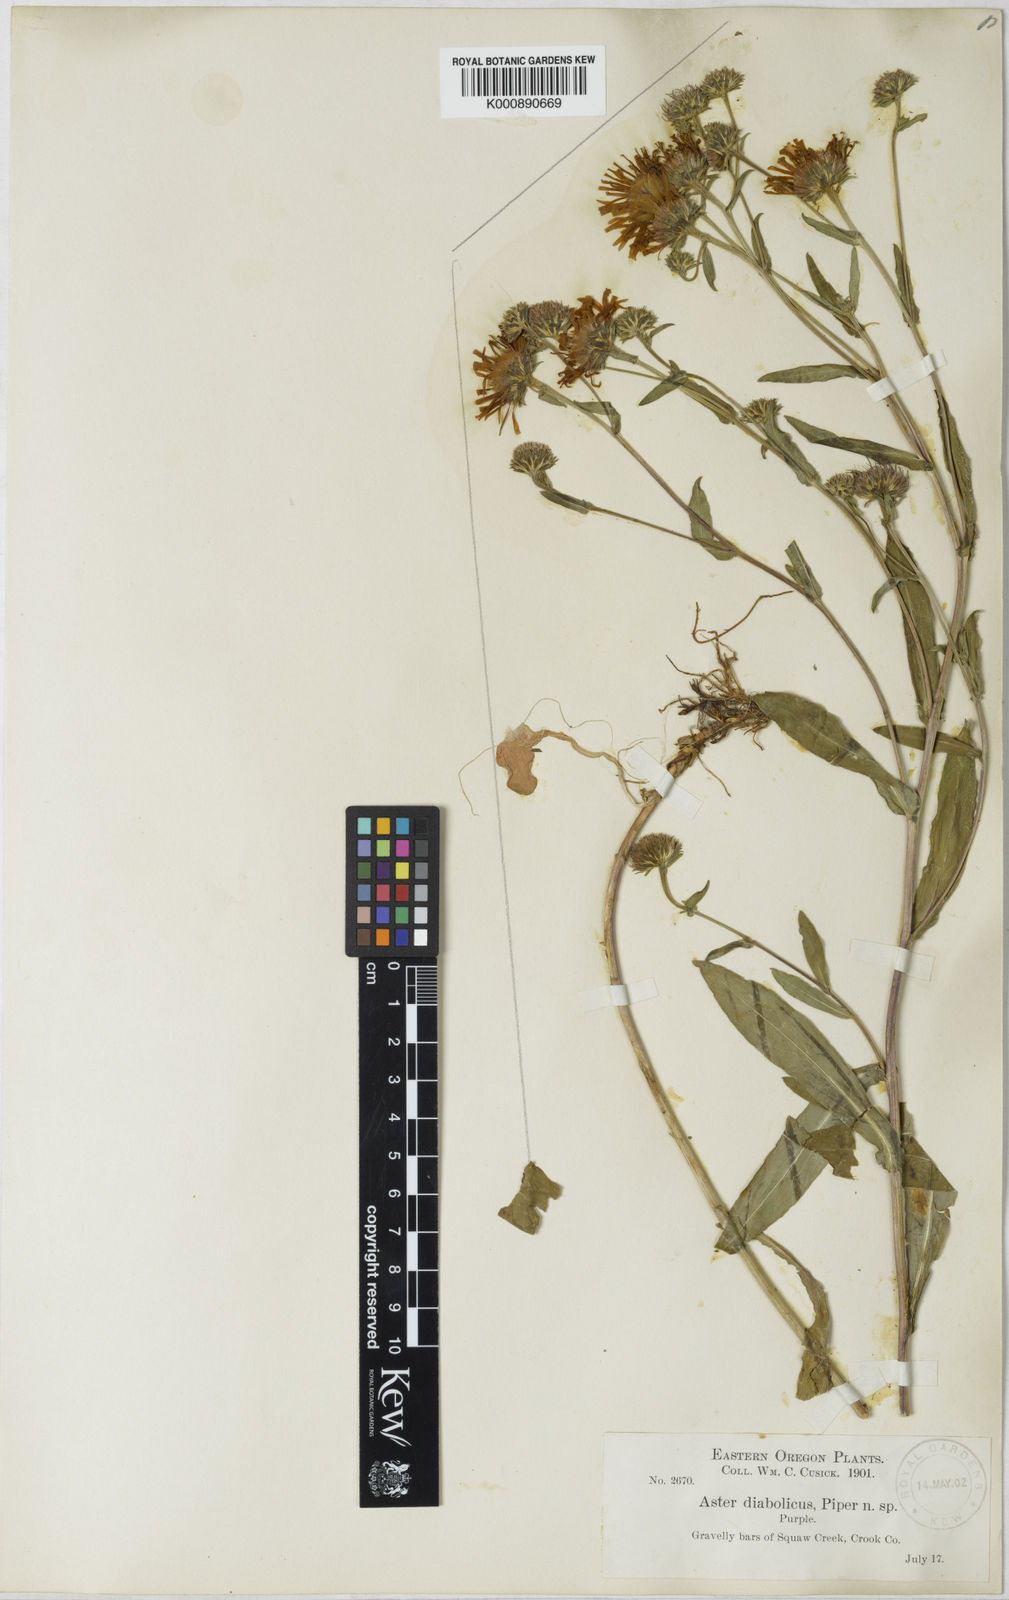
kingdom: Plantae
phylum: Tracheophyta
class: Magnoliopsida
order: Asterales
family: Asteraceae
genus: Symphyotrichum
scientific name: Symphyotrichum foliaceum
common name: Leafy aster
